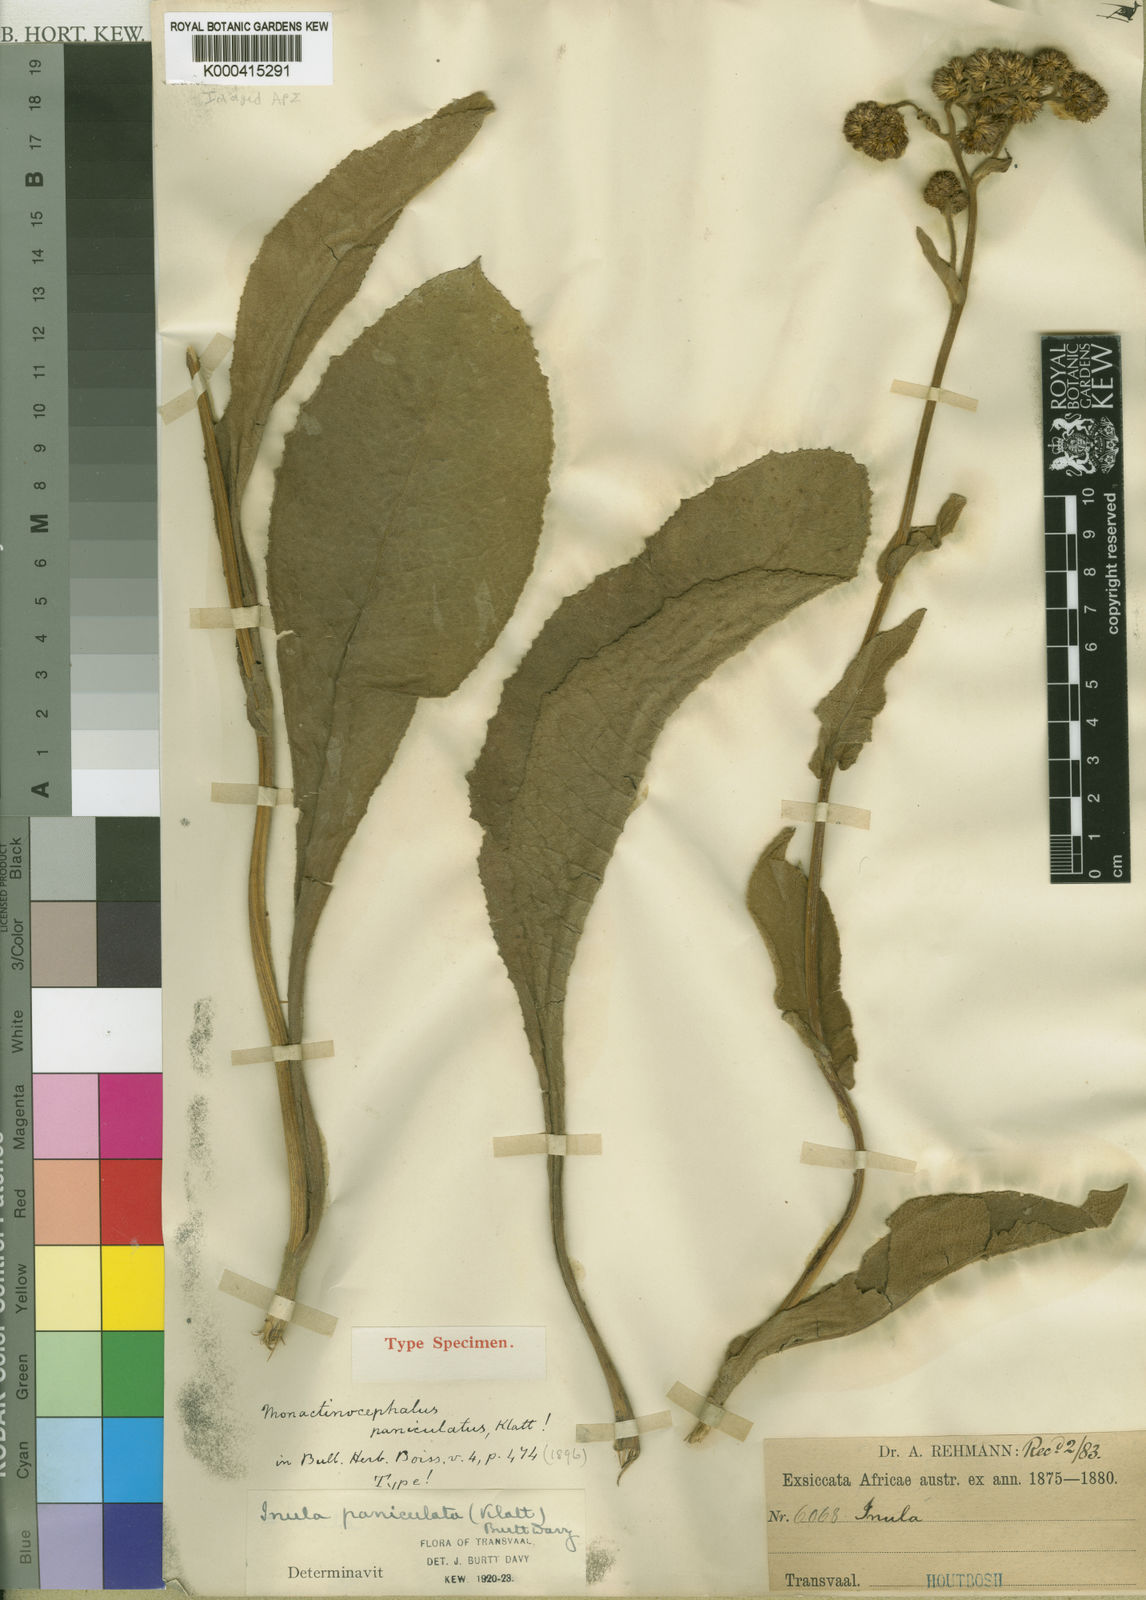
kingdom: Plantae
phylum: Tracheophyta
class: Magnoliopsida
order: Asterales
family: Asteraceae
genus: Monactinocephalus
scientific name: Monactinocephalus paniculatus
